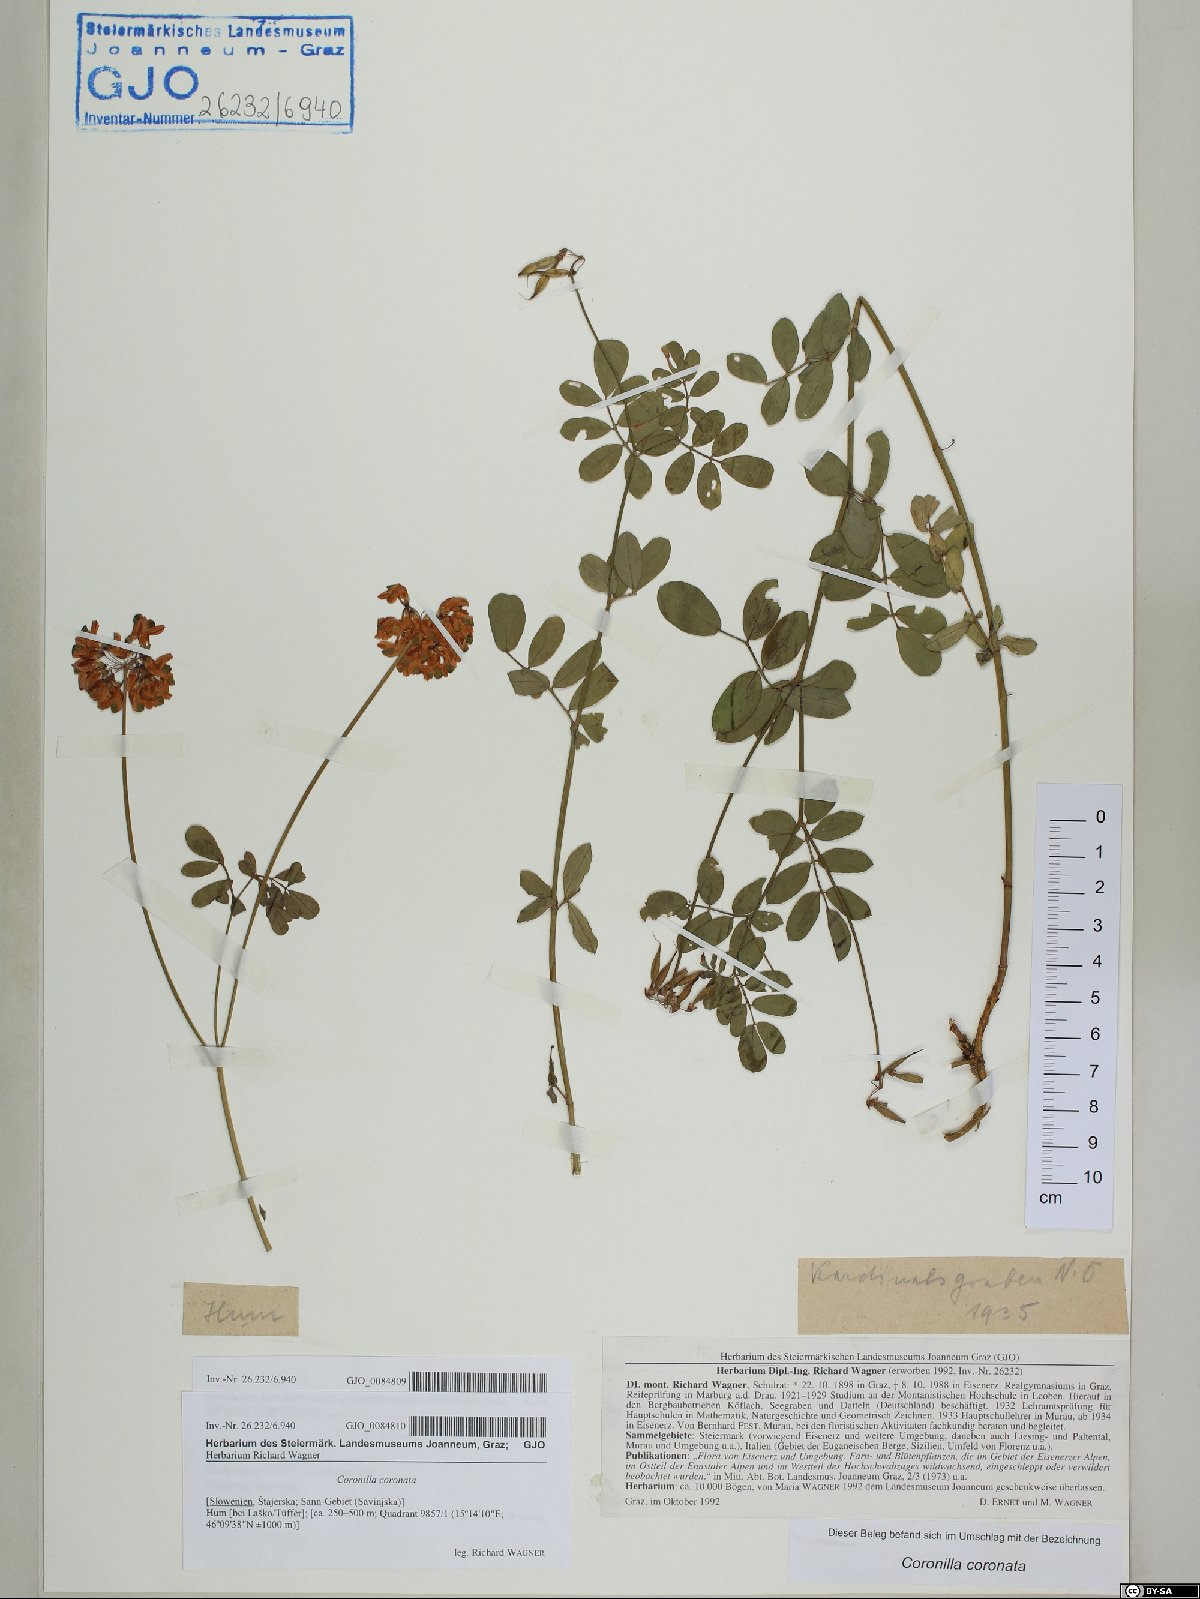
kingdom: Plantae
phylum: Tracheophyta
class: Magnoliopsida
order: Fabales
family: Fabaceae
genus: Coronilla
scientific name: Coronilla coronata
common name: Scorpion-vetch
